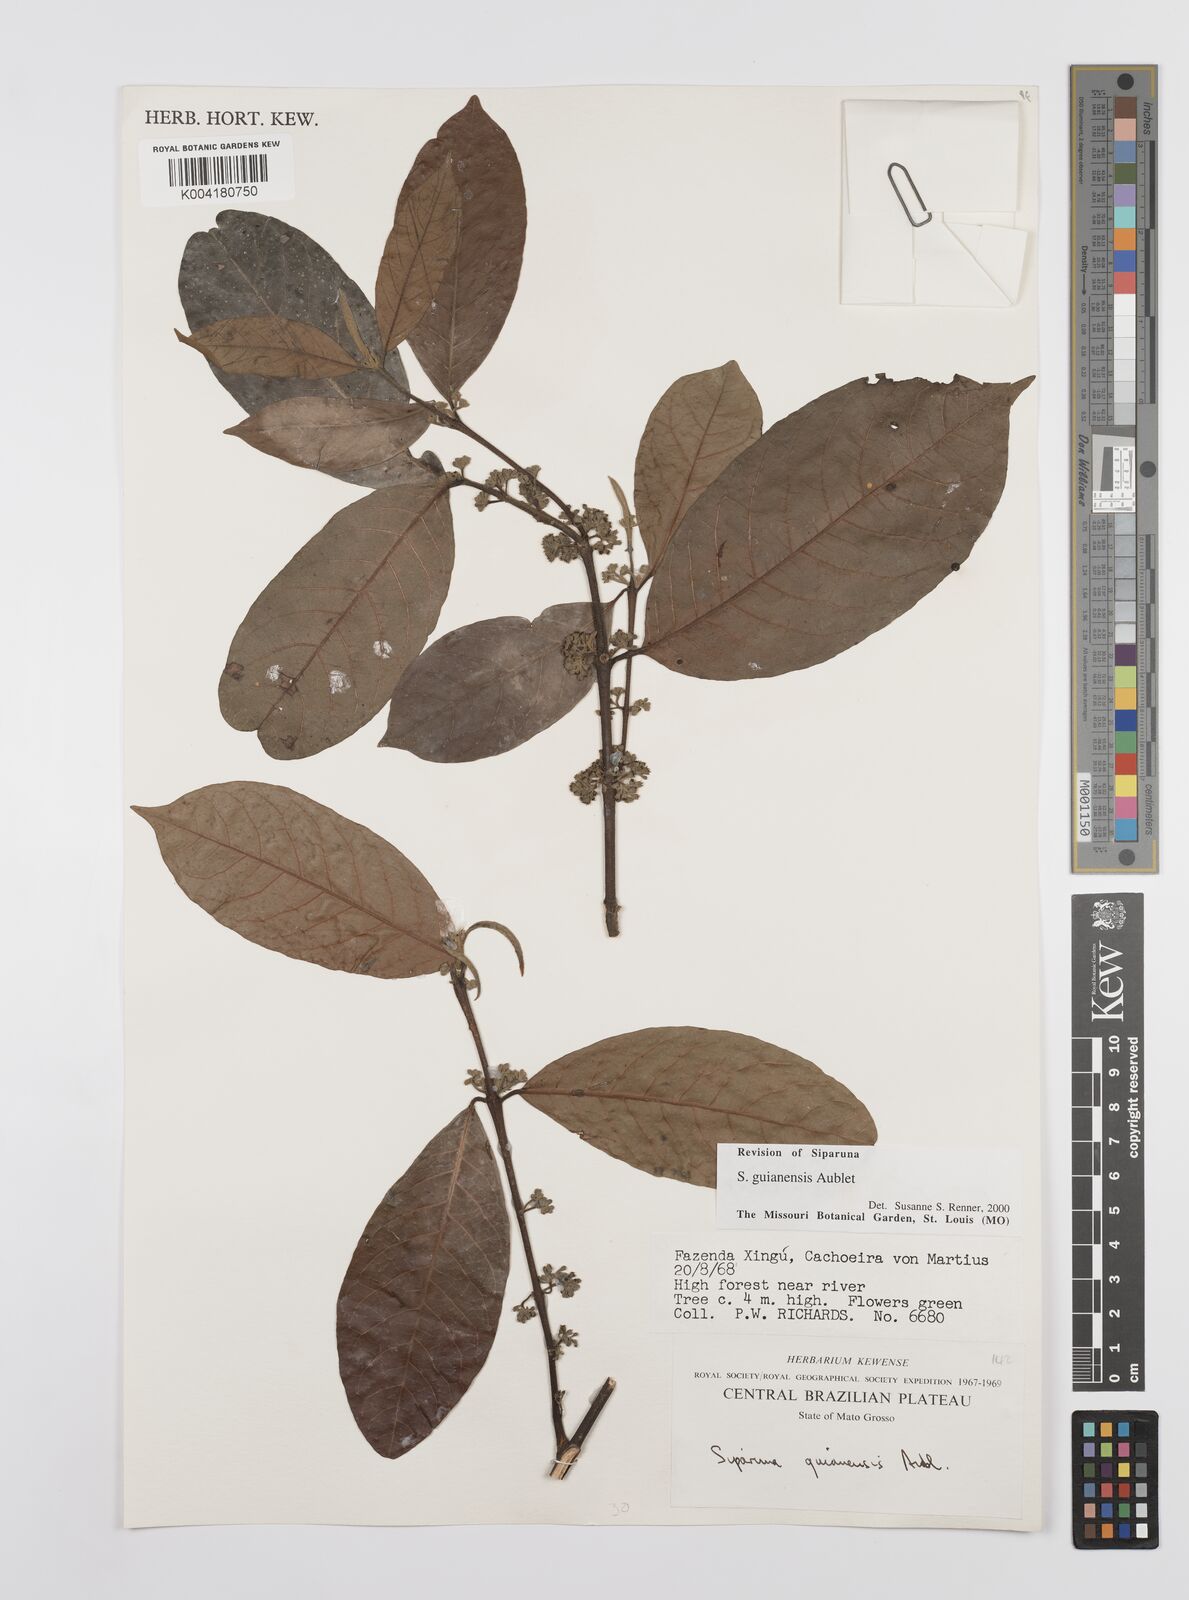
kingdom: Plantae
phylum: Tracheophyta
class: Magnoliopsida
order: Laurales
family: Siparunaceae
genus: Siparuna
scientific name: Siparuna guianensis
